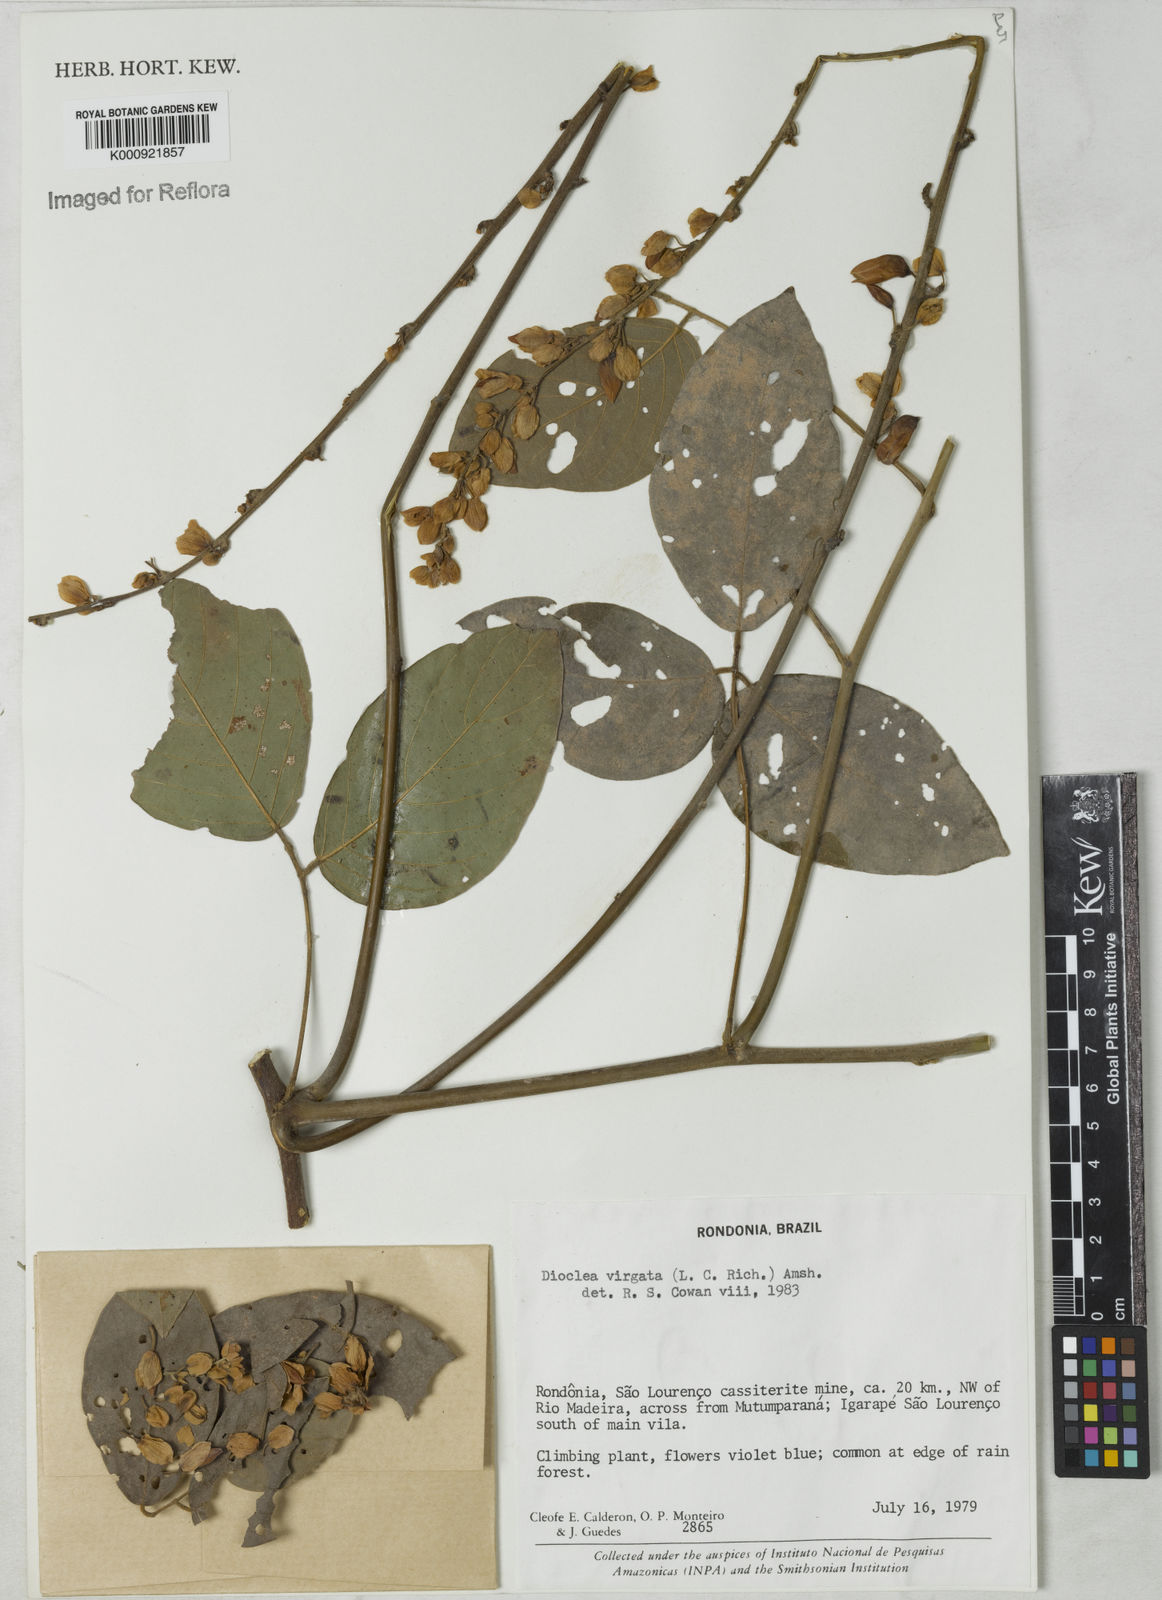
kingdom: Plantae
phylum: Tracheophyta
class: Magnoliopsida
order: Fabales
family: Fabaceae
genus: Dioclea
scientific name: Dioclea virgata
